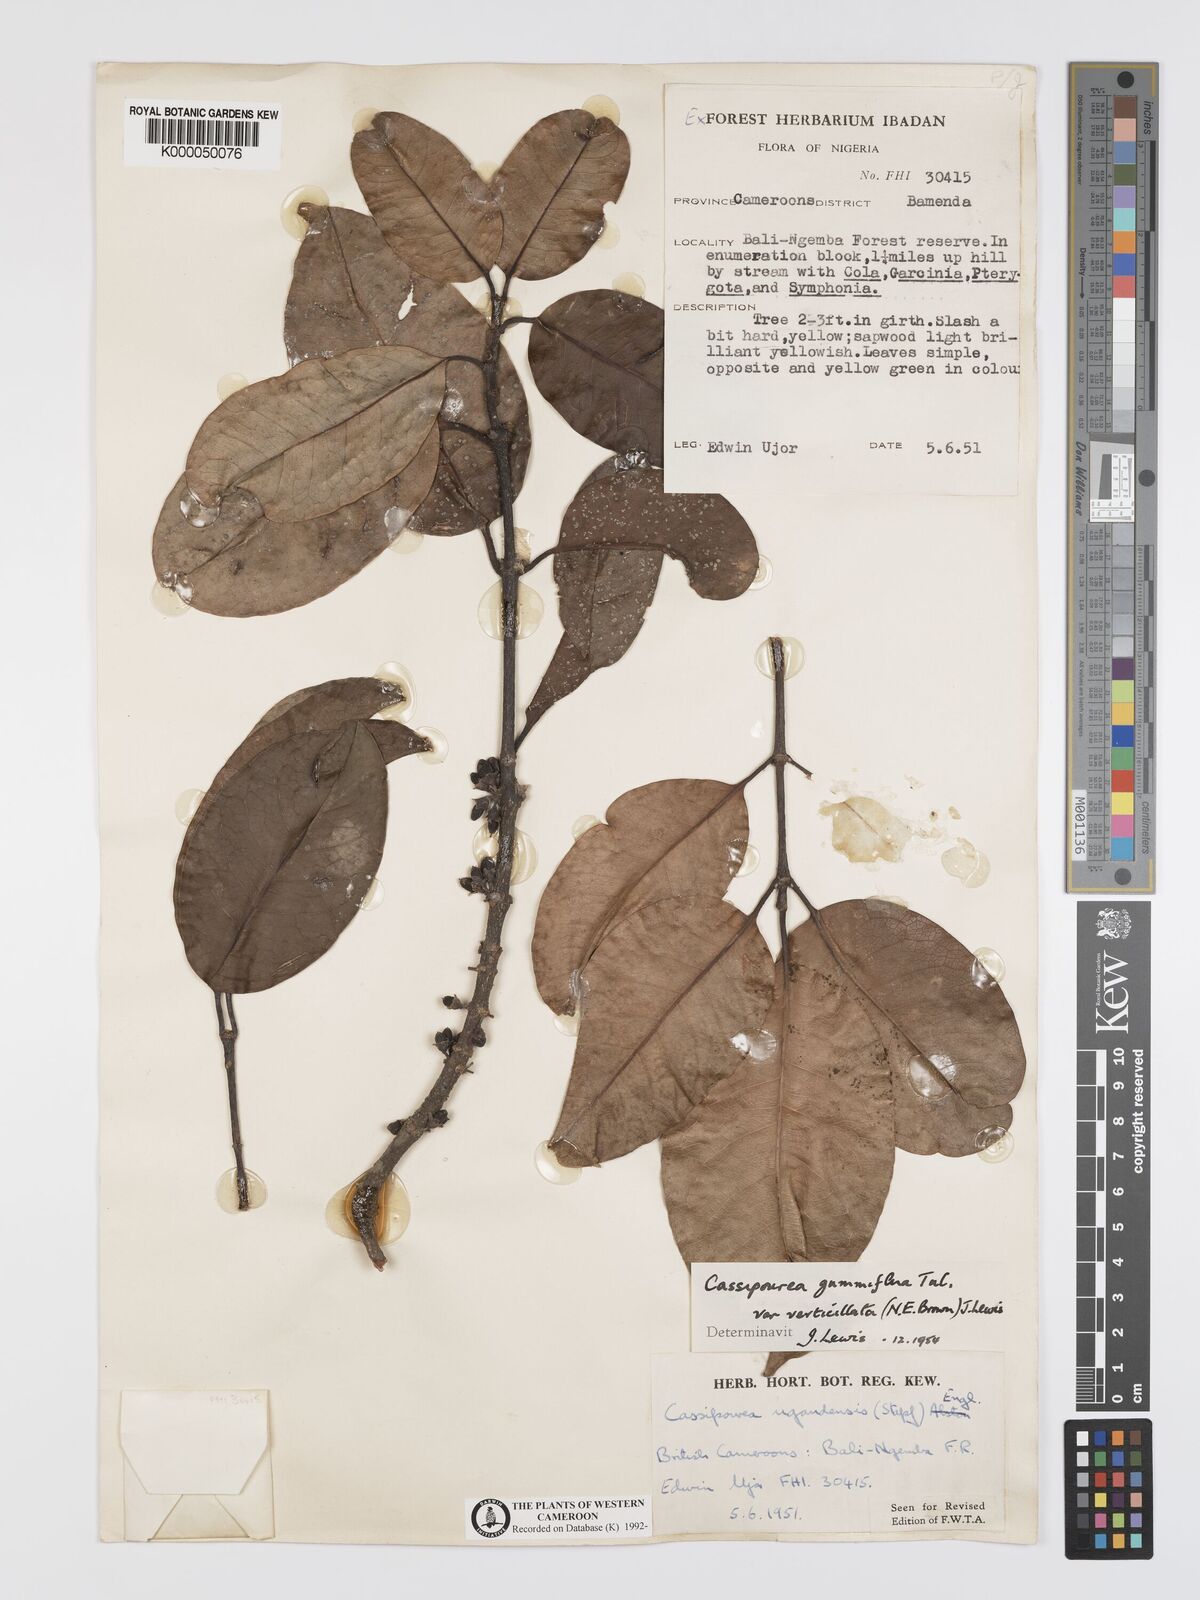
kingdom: Plantae
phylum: Tracheophyta
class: Magnoliopsida
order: Malpighiales
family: Rhizophoraceae
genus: Cassipourea
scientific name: Cassipourea
